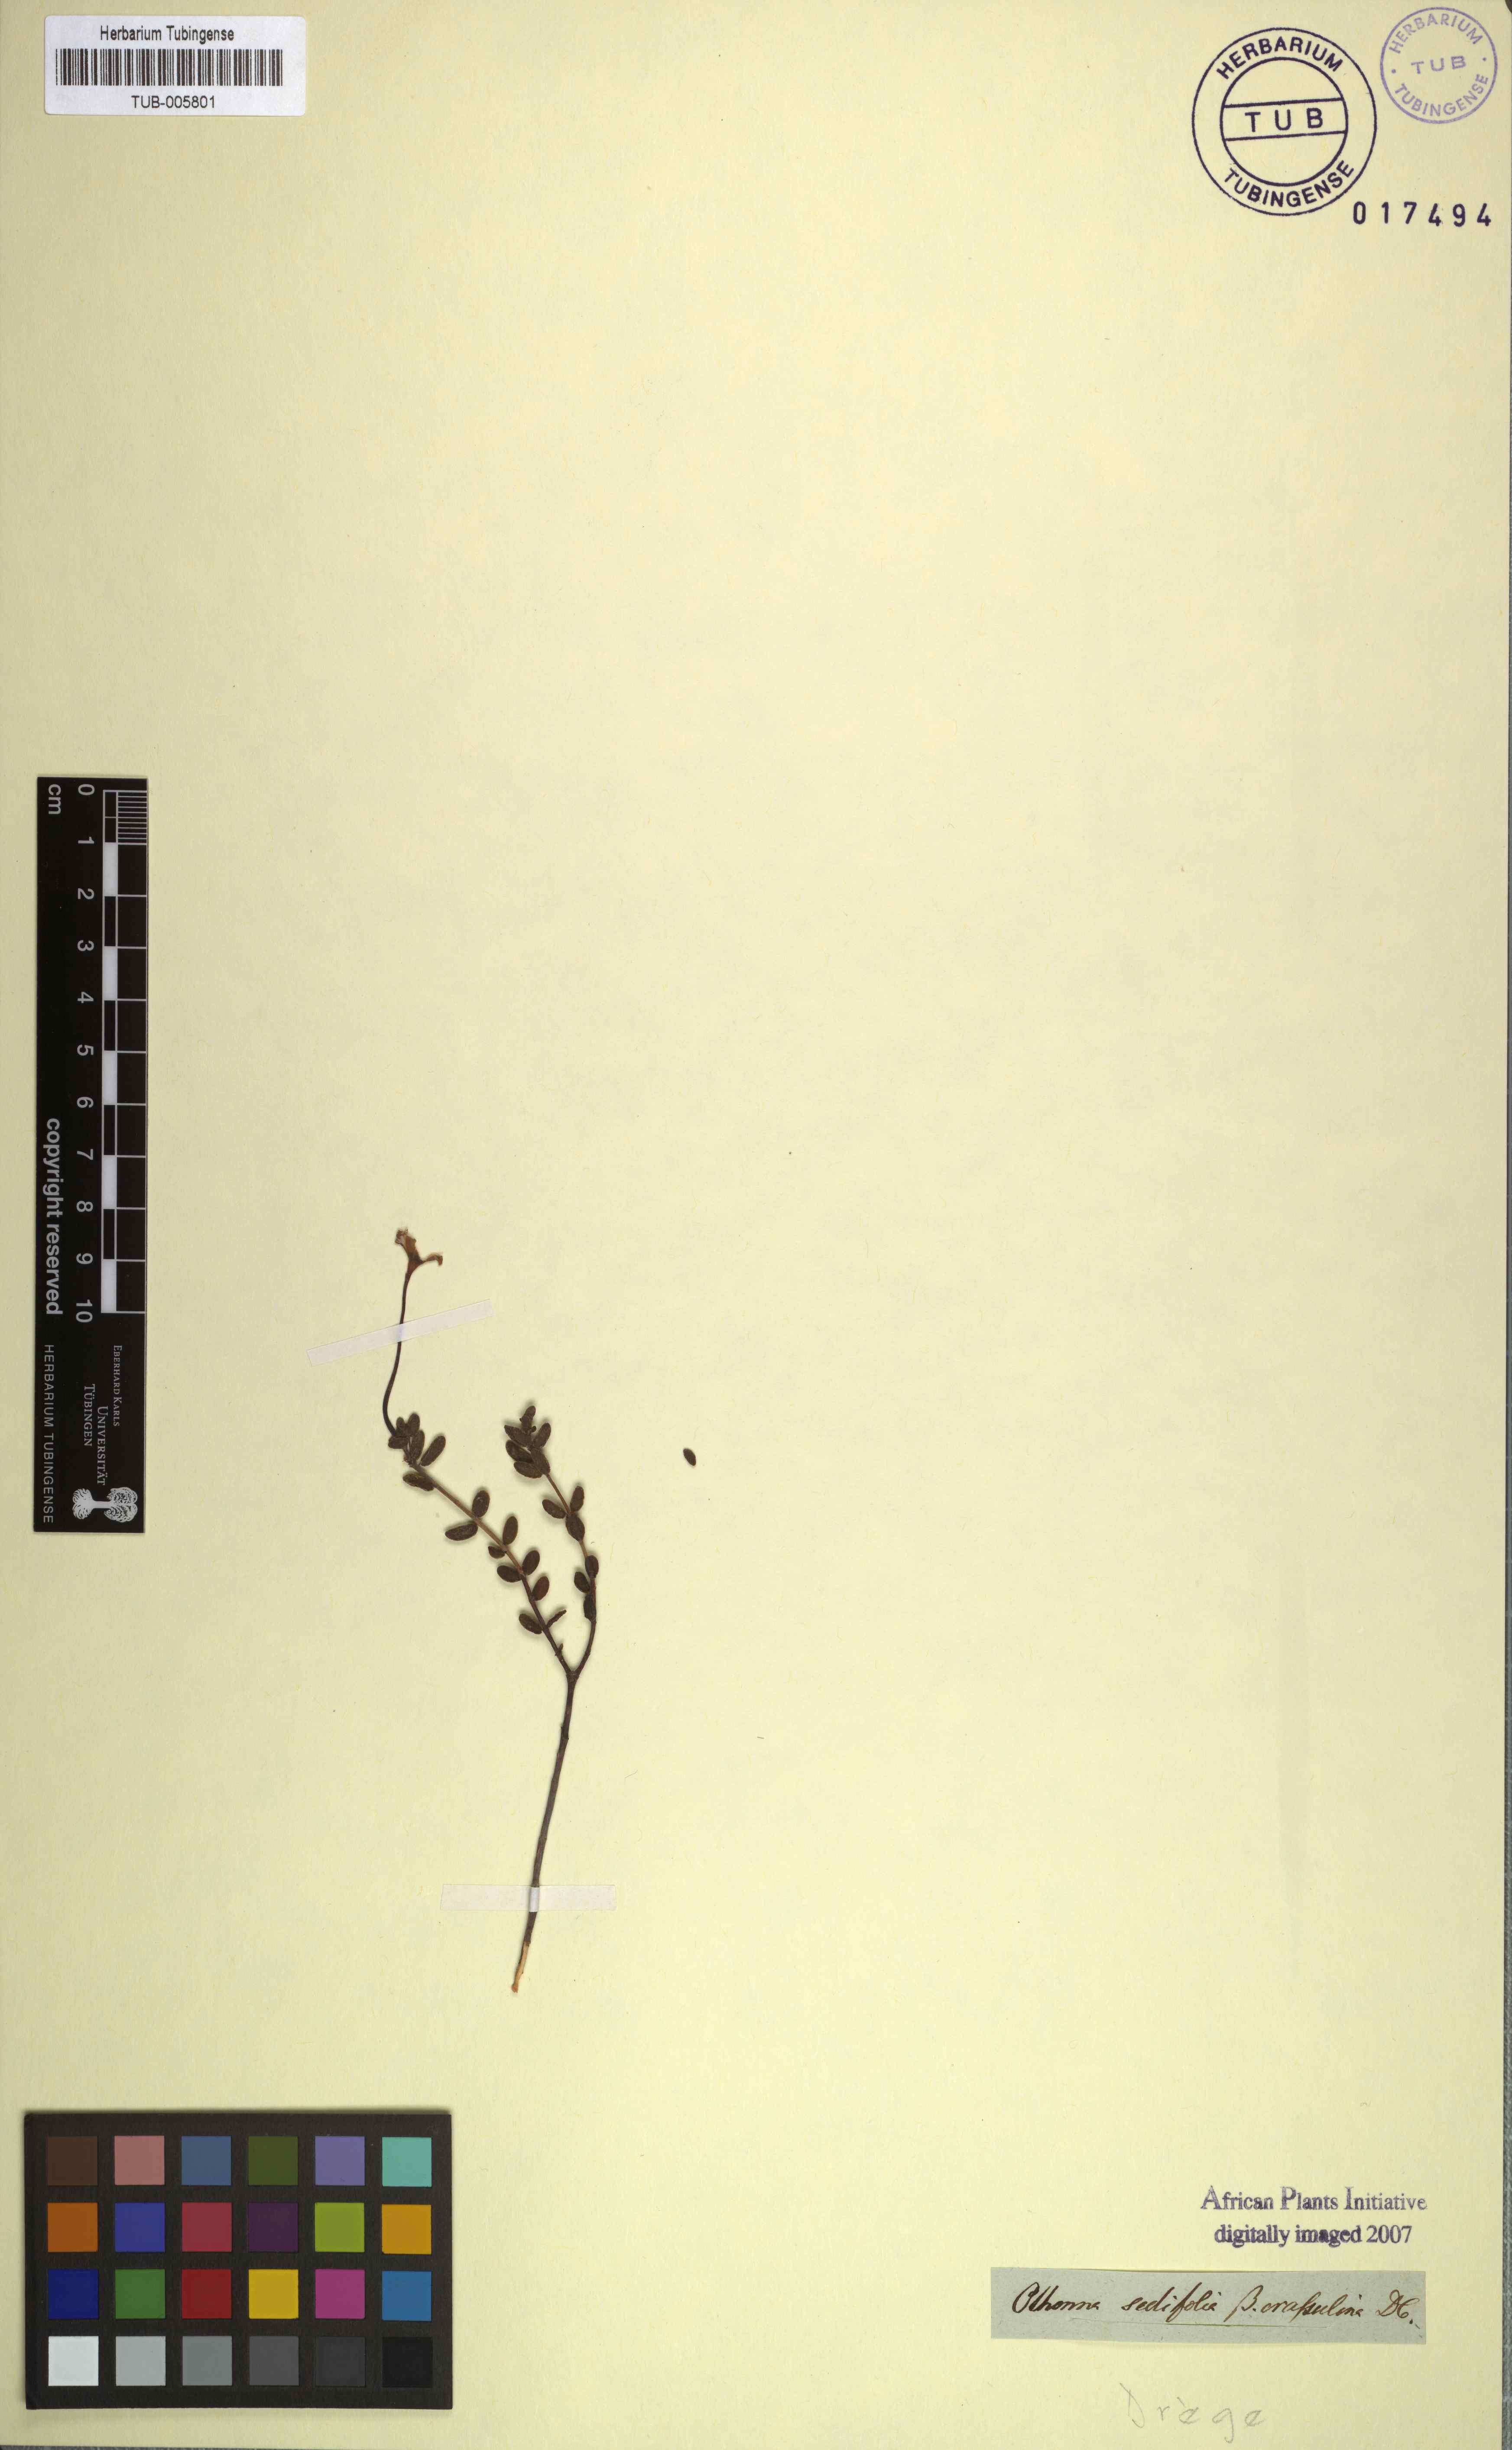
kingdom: Plantae
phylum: Tracheophyta
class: Magnoliopsida
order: Asterales
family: Asteraceae
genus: Crassothonna
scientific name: Crassothonna sedifolia
